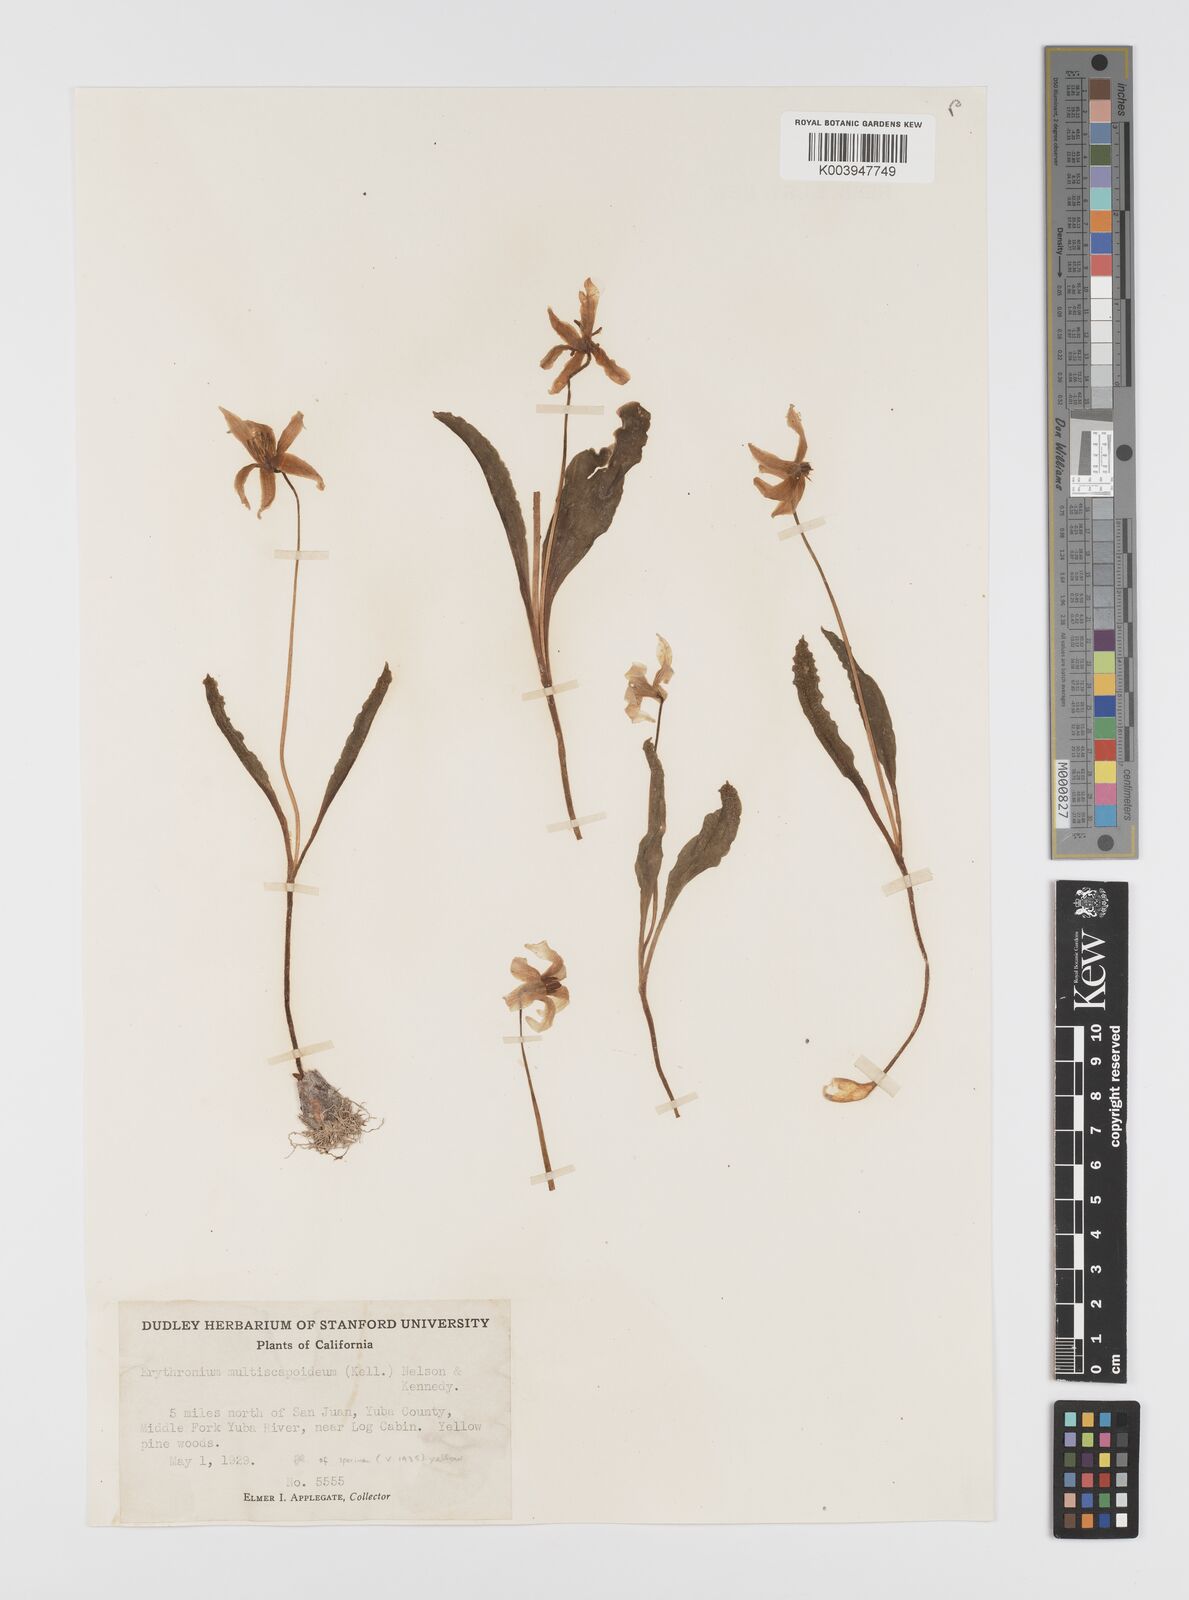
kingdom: Plantae
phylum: Tracheophyta
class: Liliopsida
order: Liliales
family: Liliaceae
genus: Erythronium
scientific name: Erythronium multiscapideum
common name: Sierra foothills fawn-lily
